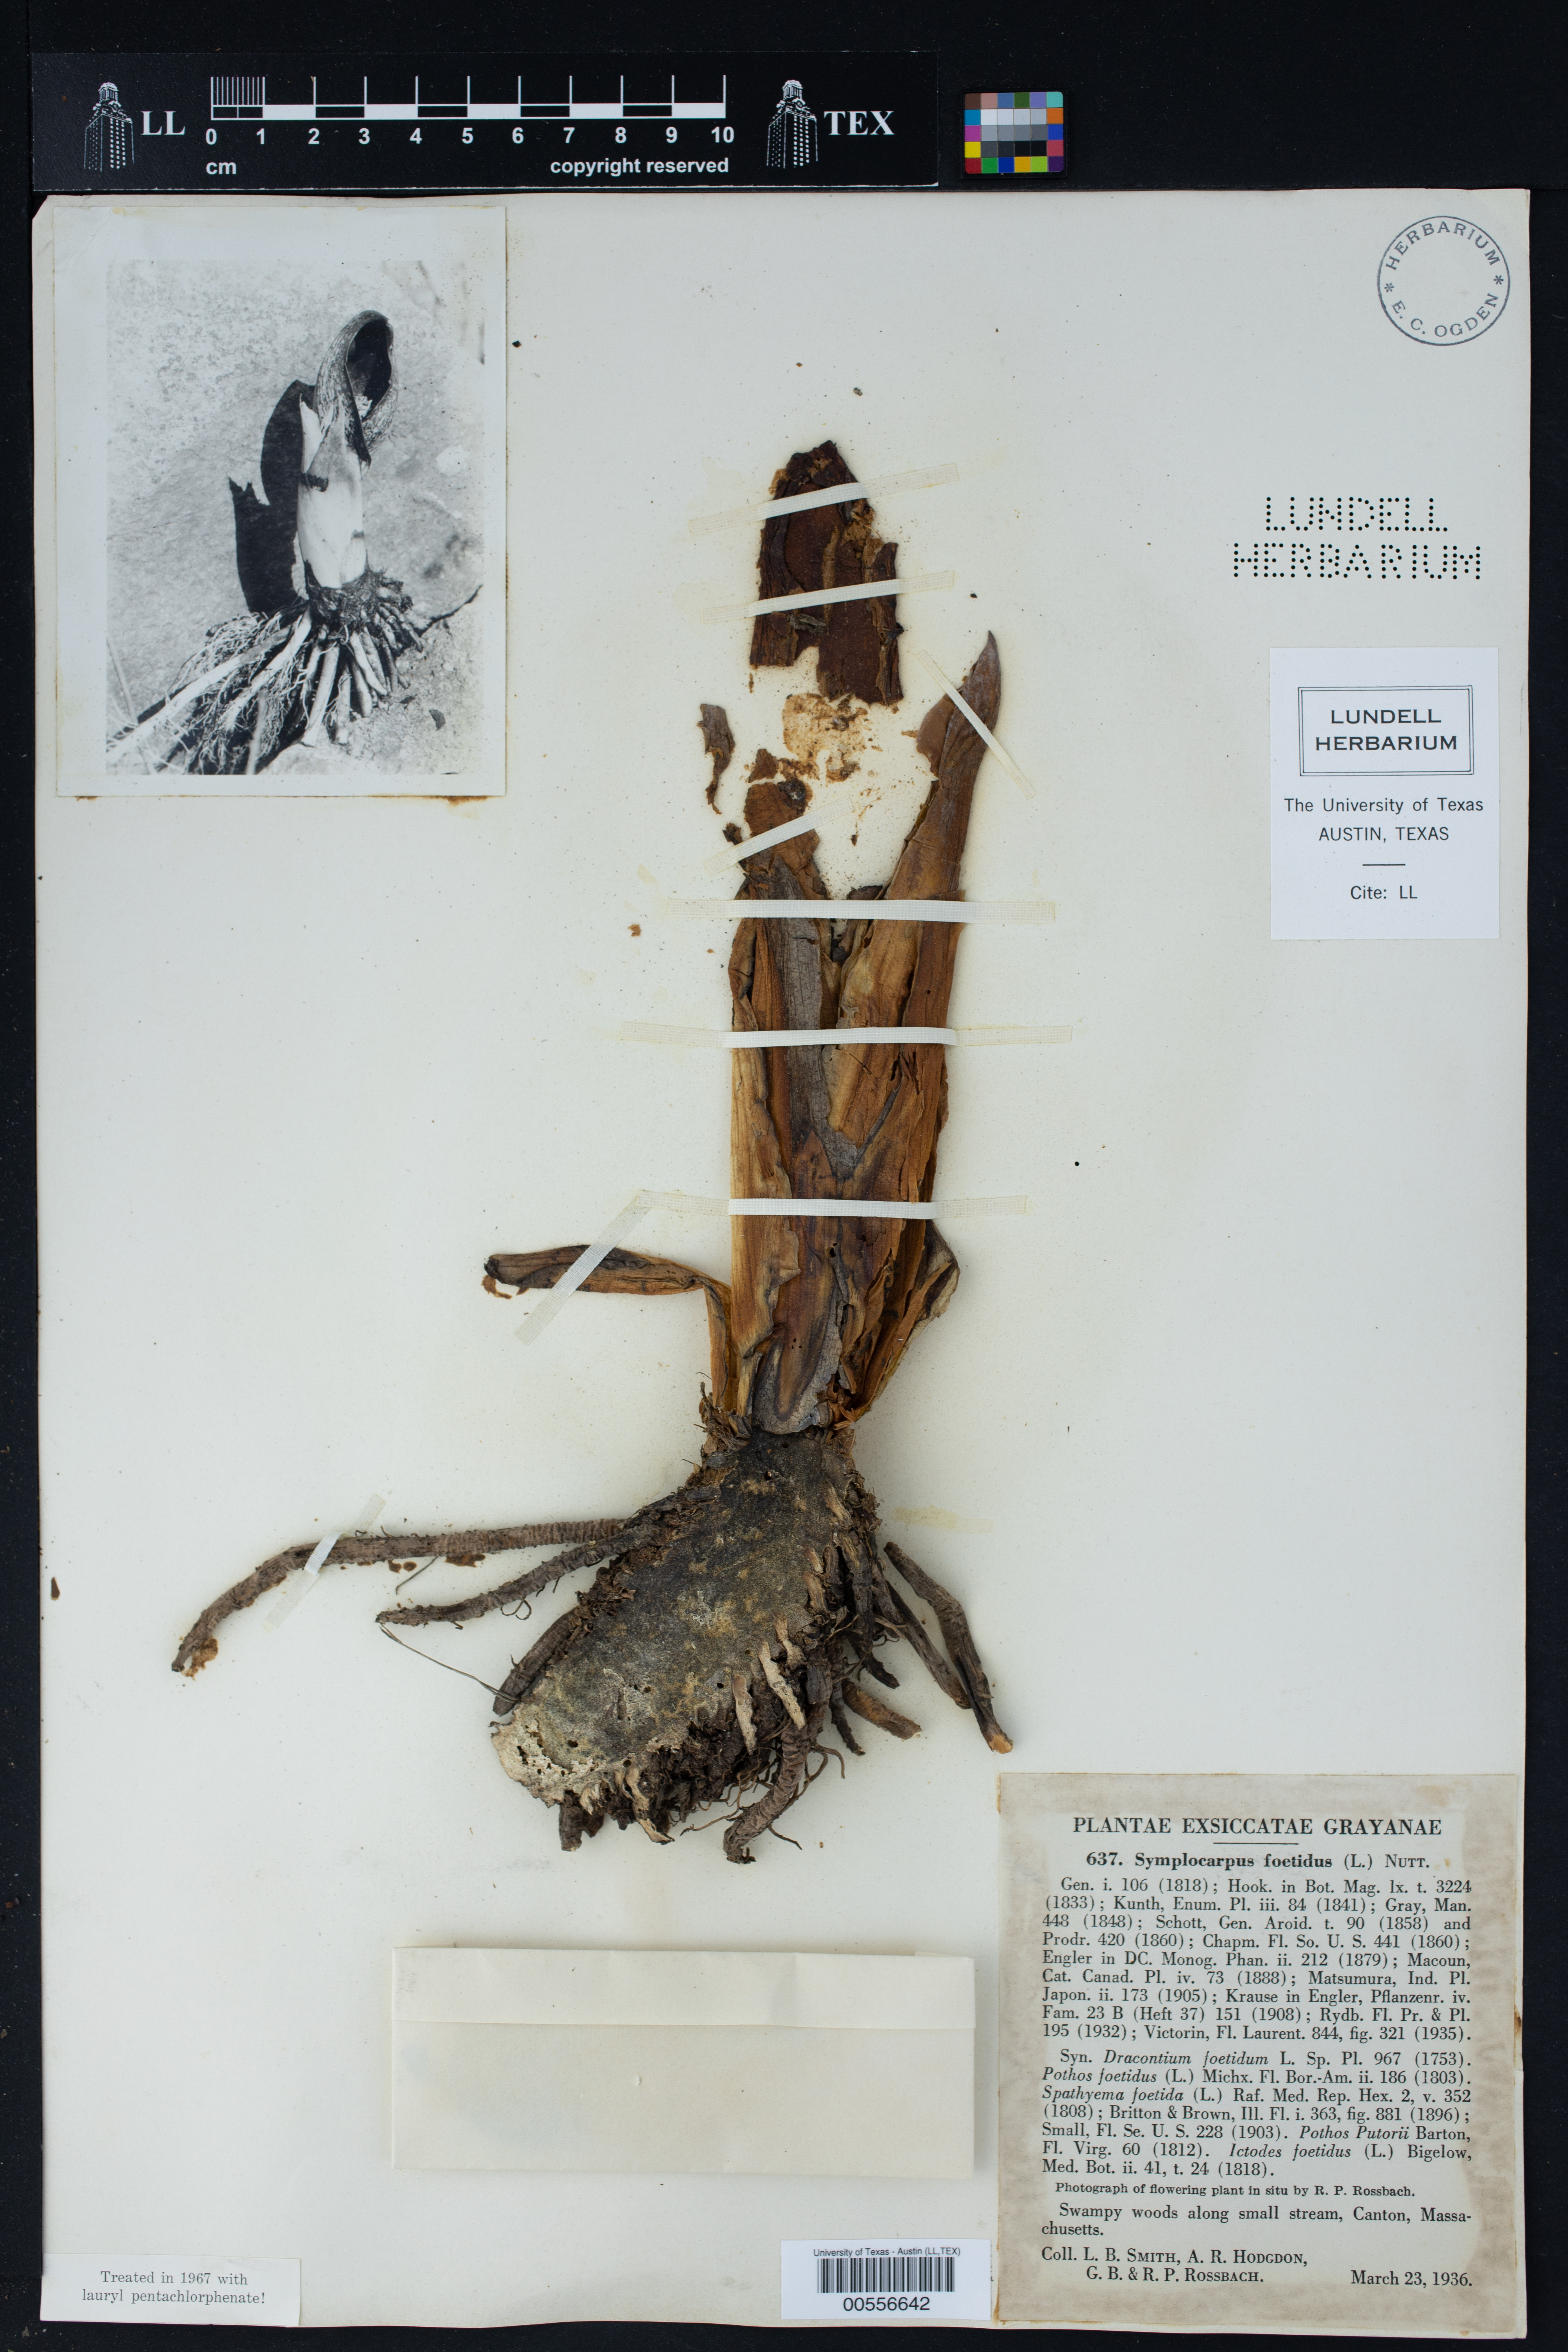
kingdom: Plantae
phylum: Tracheophyta
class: Liliopsida
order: Alismatales
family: Araceae
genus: Symplocarpus
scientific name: Symplocarpus foetidus
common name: Eastern skunk cabbage
